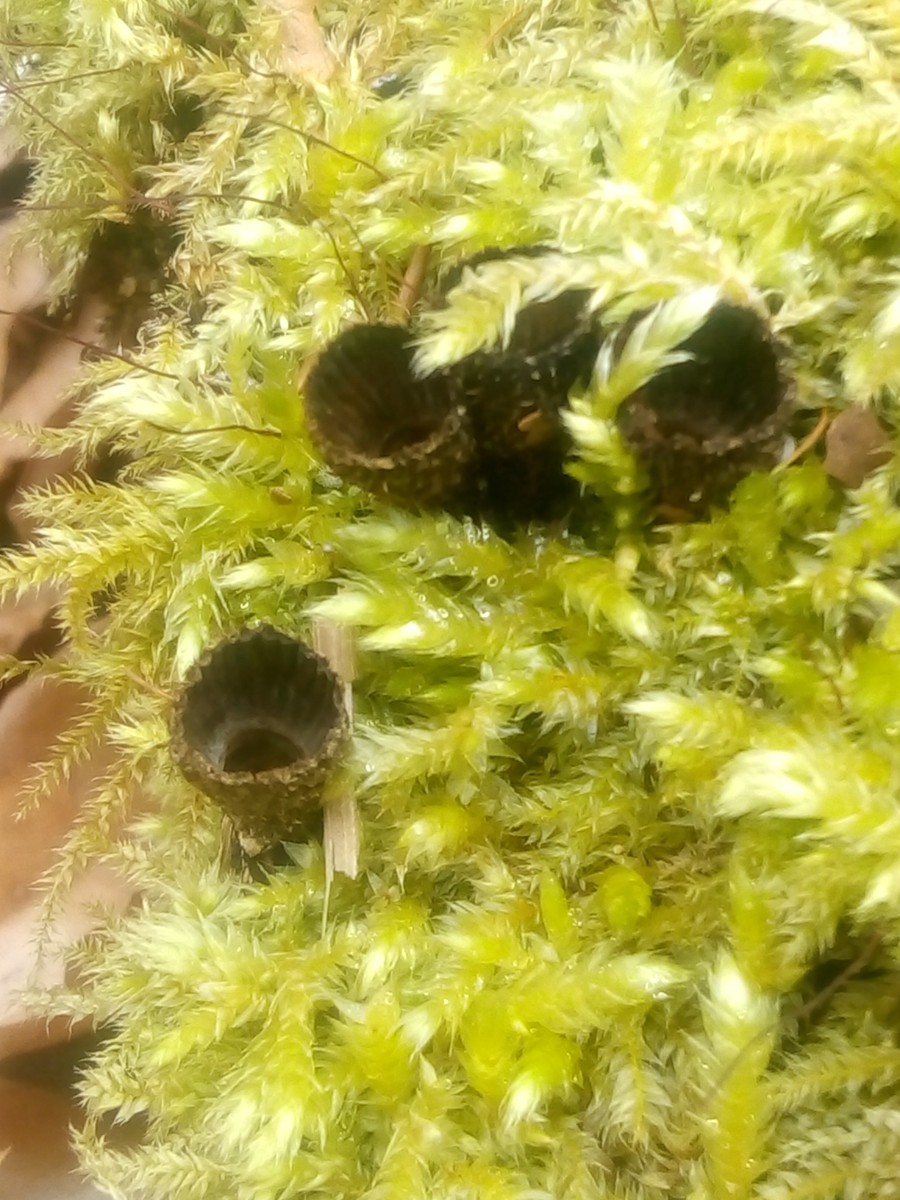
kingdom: Fungi
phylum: Basidiomycota
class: Agaricomycetes
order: Agaricales
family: Agaricaceae
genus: Cyathus
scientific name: Cyathus striatus
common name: stribet redesvamp
